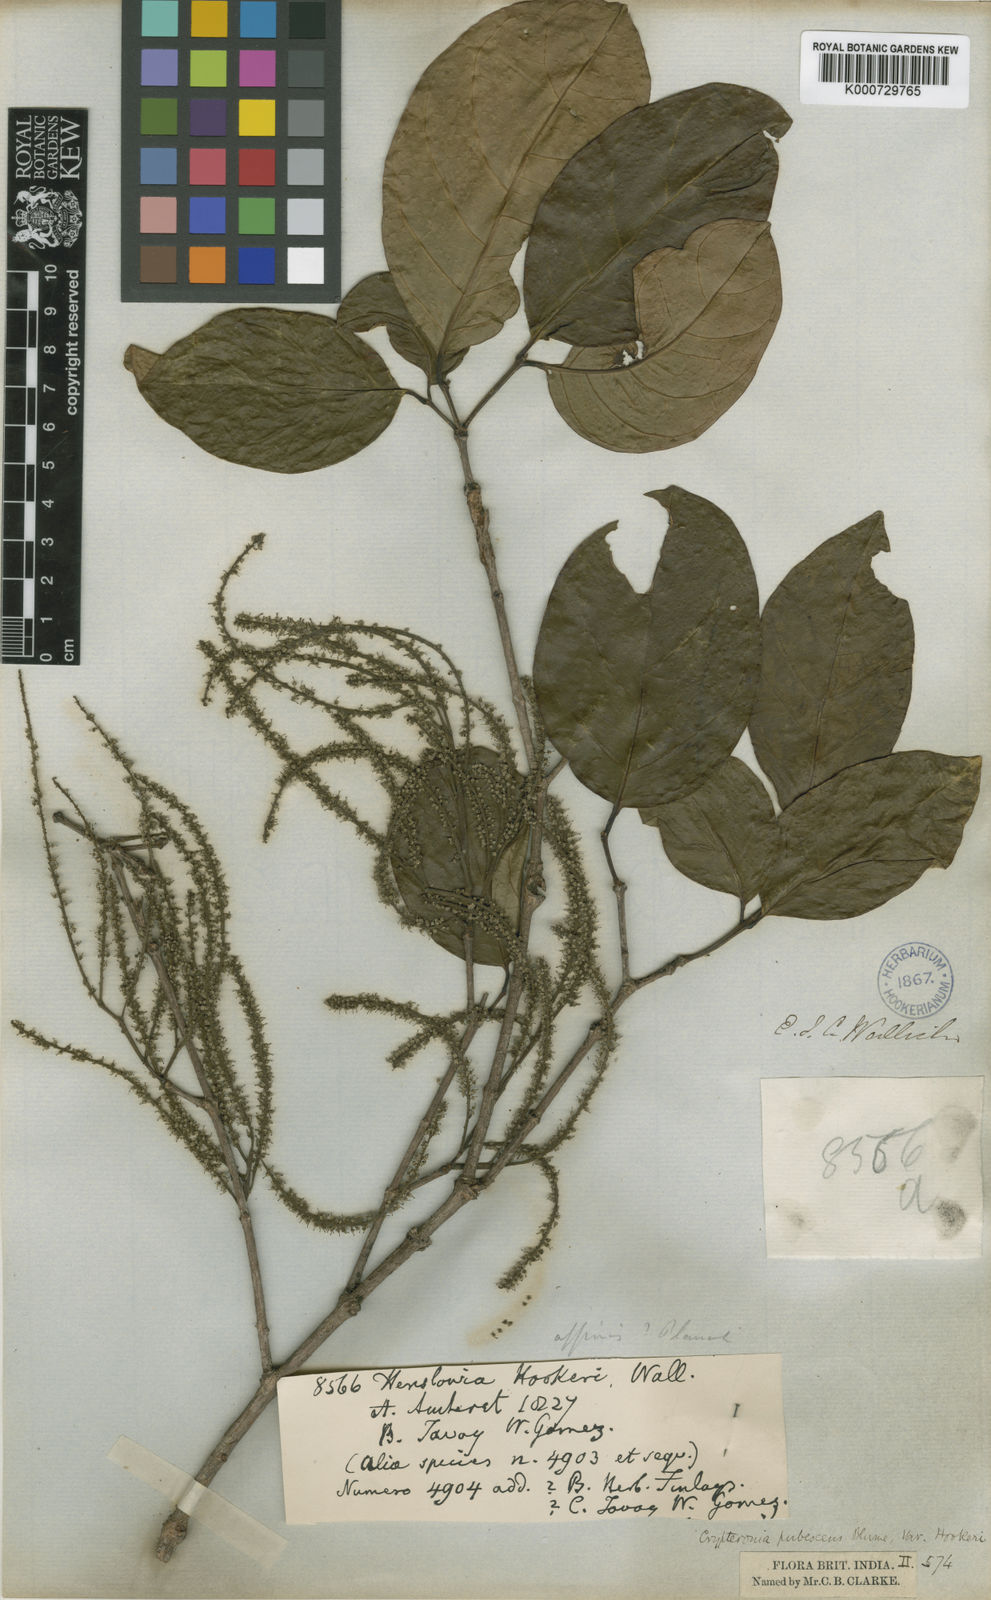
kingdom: Plantae
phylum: Tracheophyta
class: Magnoliopsida
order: Myrtales
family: Crypteroniaceae
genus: Crypteronia
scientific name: Crypteronia paniculata
